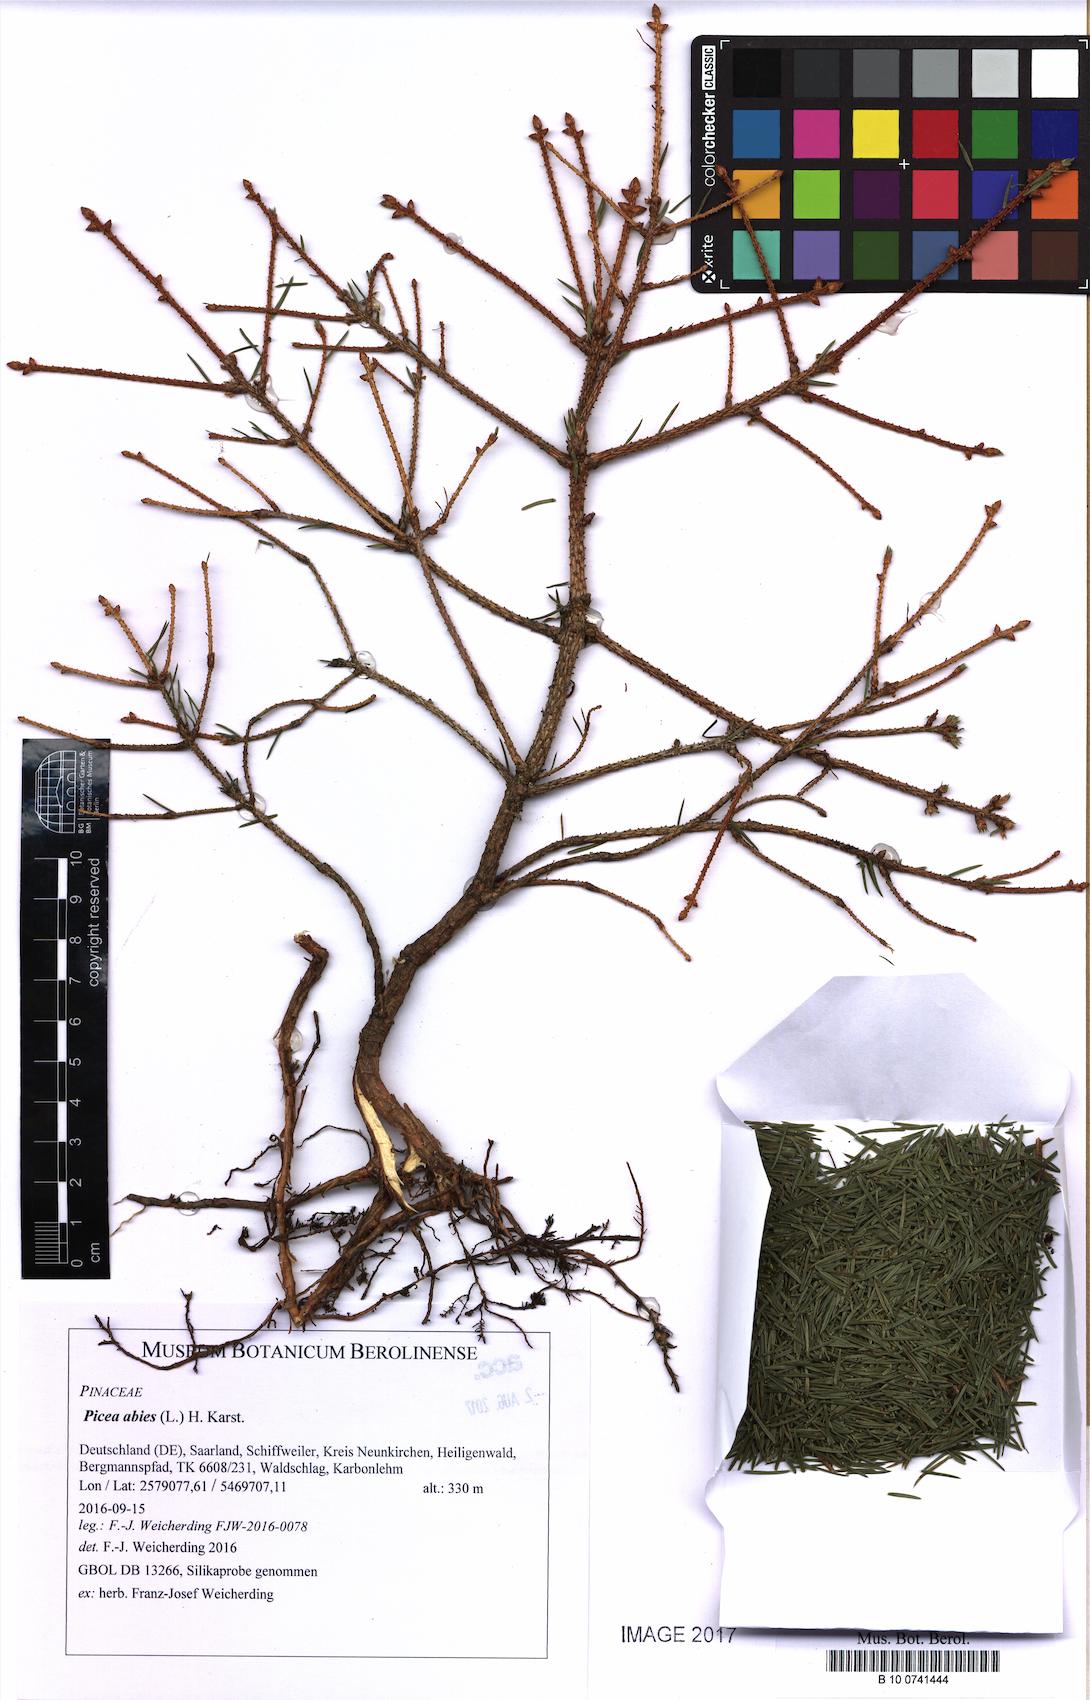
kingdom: Plantae
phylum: Tracheophyta
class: Pinopsida
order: Pinales
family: Pinaceae
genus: Picea
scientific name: Picea abies
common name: Norway spruce
